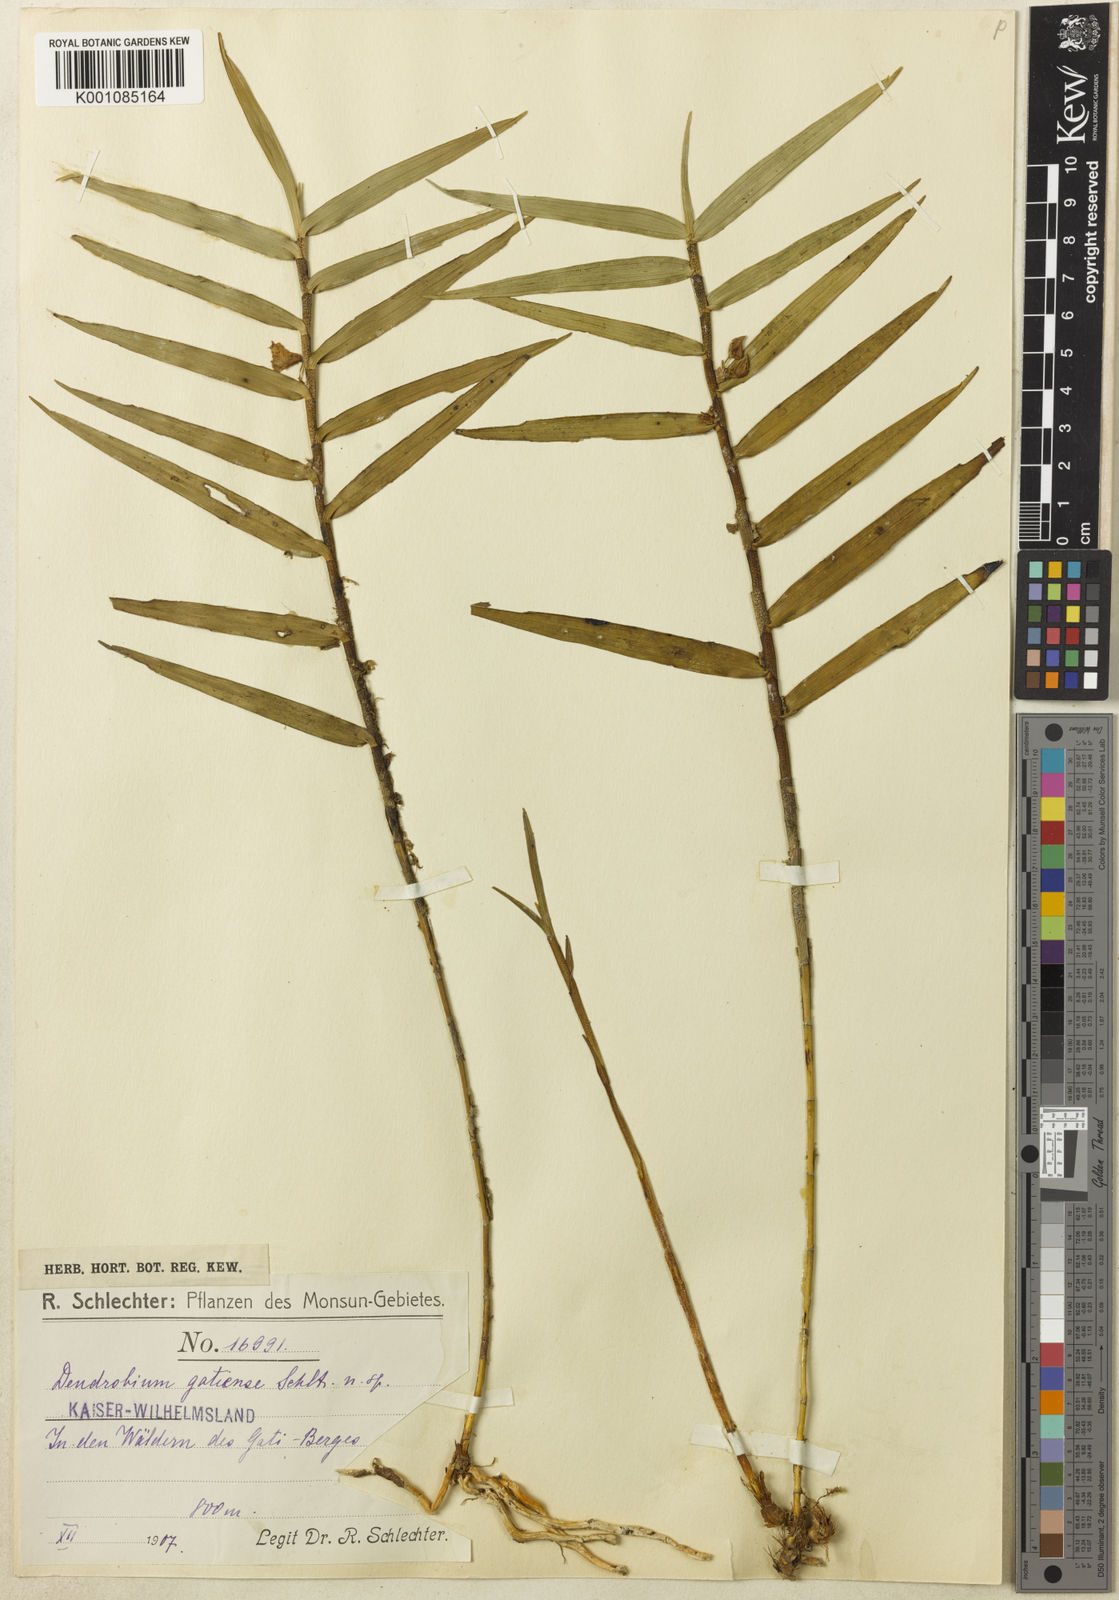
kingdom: Plantae
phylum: Tracheophyta
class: Liliopsida
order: Asparagales
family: Orchidaceae
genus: Dendrobium
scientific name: Dendrobium gatiense
